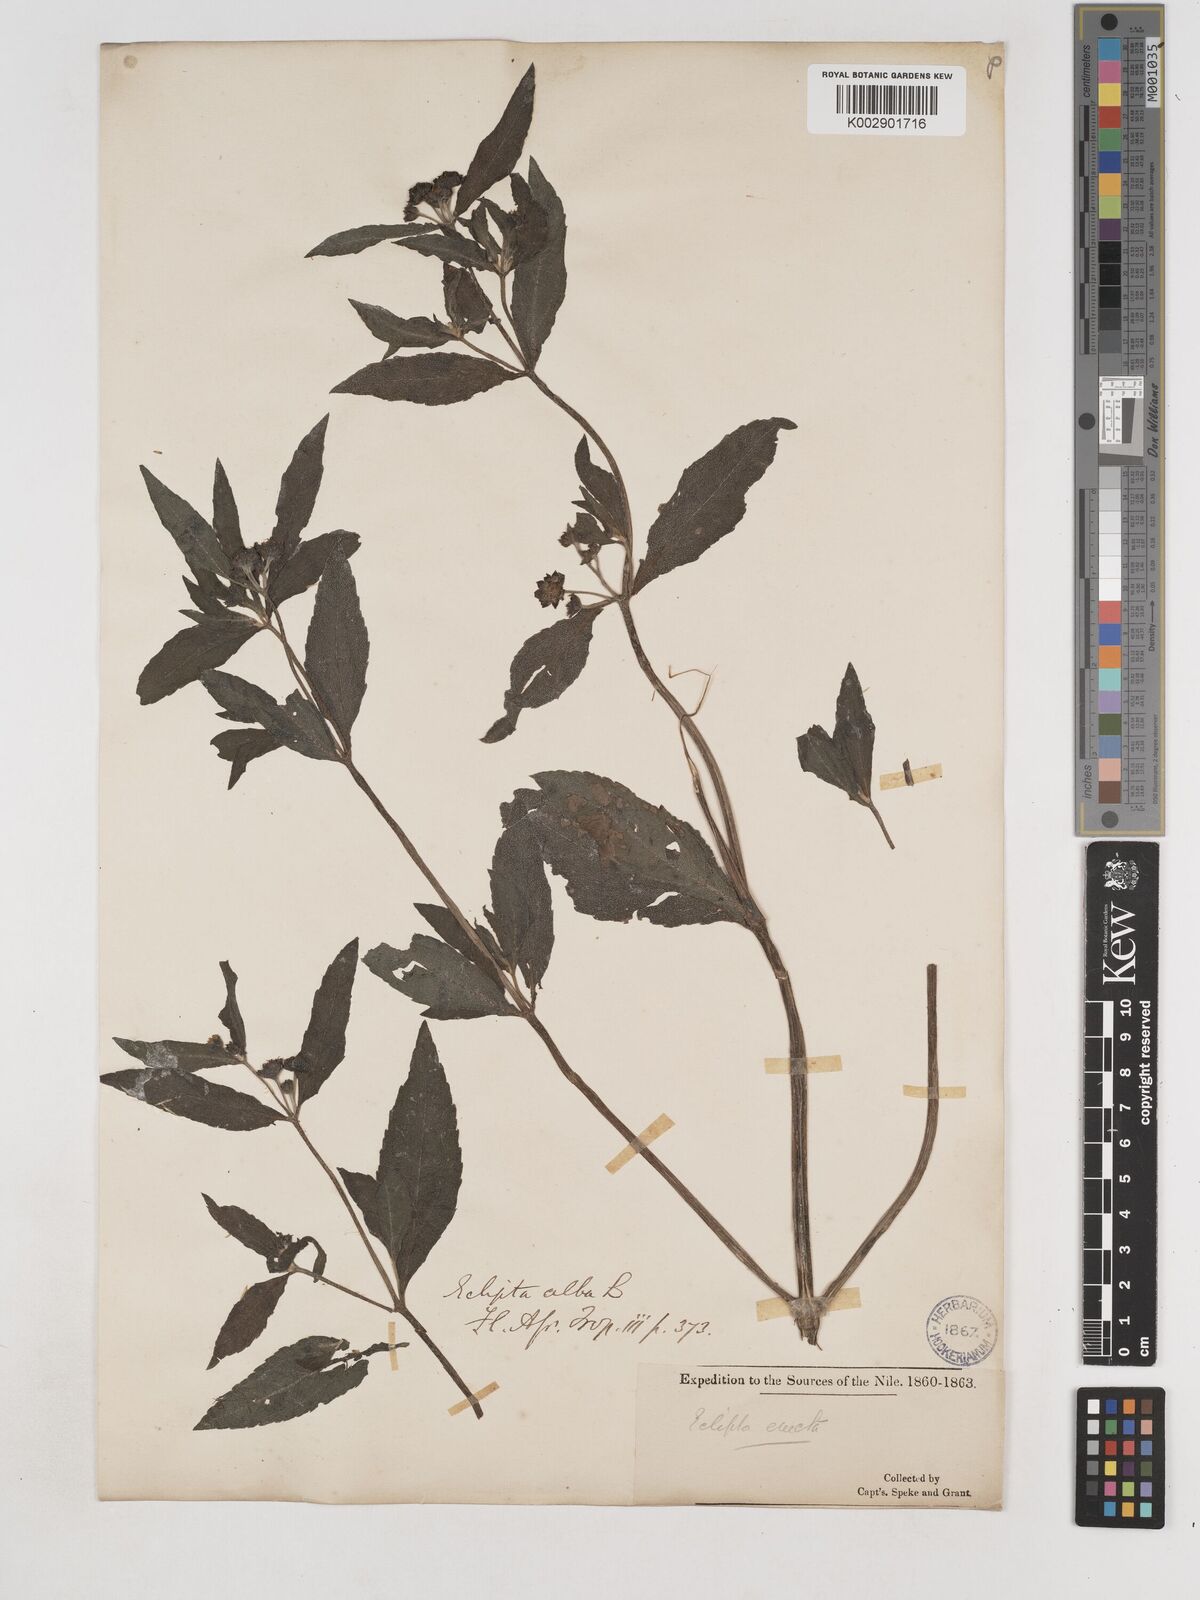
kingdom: Plantae
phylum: Tracheophyta
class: Magnoliopsida
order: Asterales
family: Asteraceae
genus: Eclipta
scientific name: Eclipta prostrata
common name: False daisy
